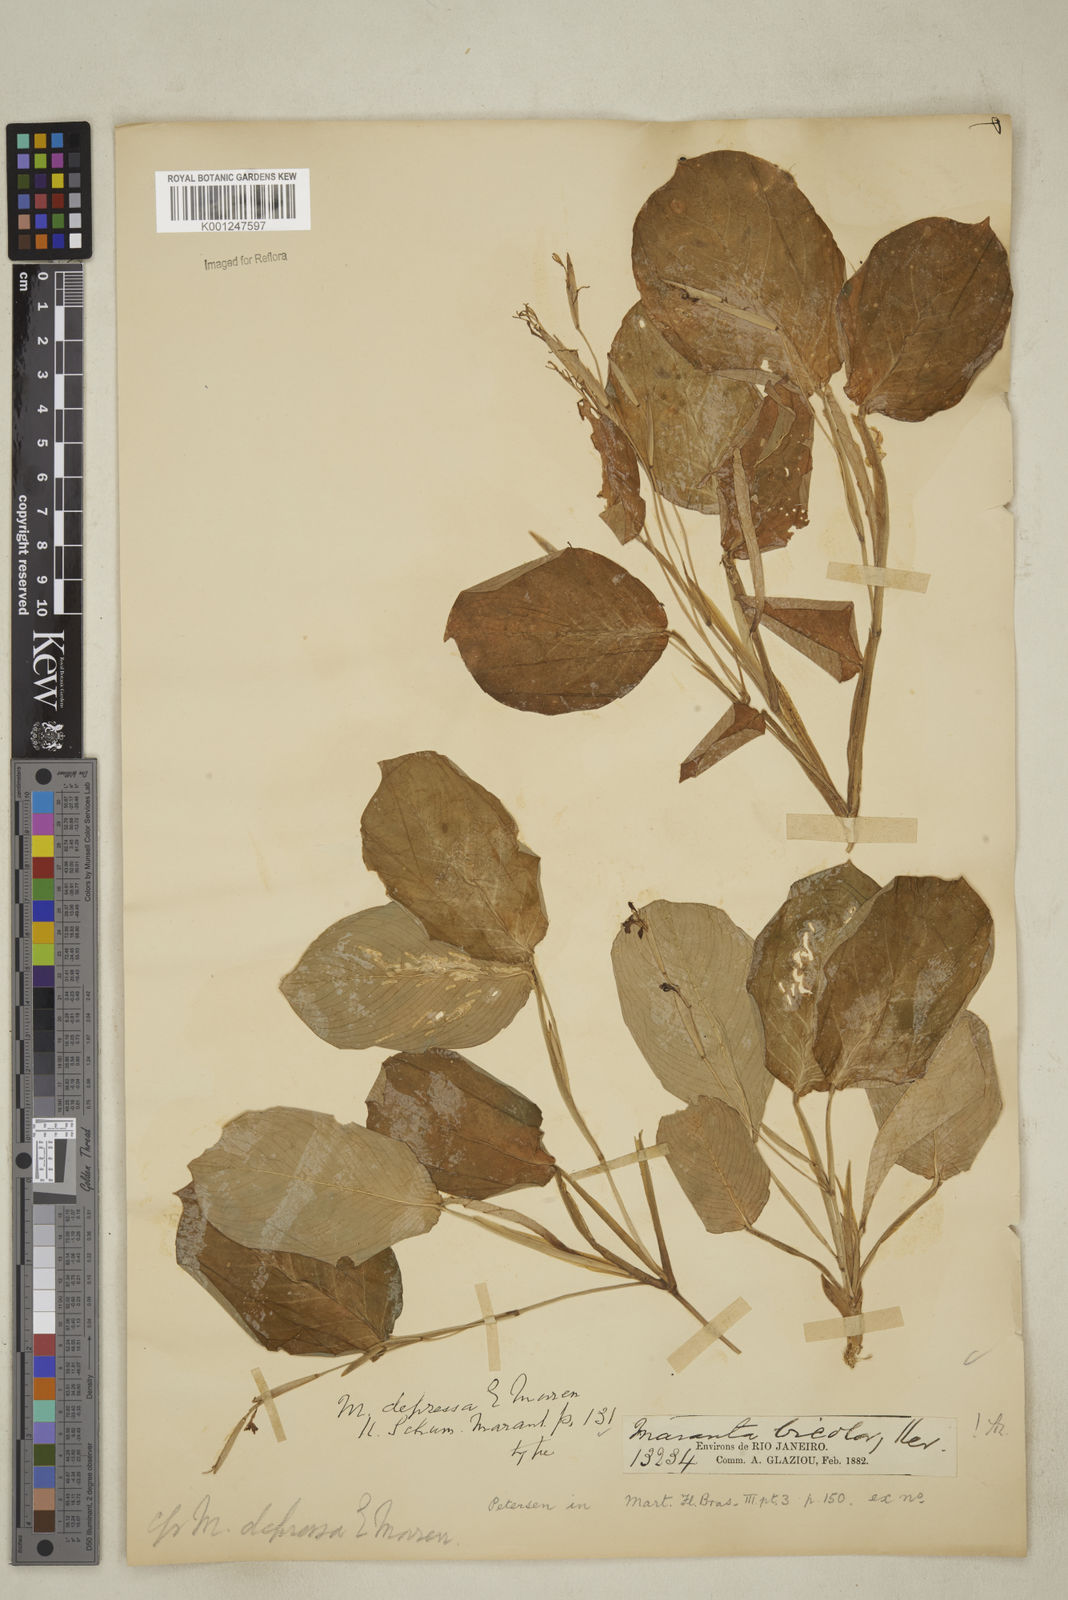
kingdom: Plantae
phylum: Tracheophyta
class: Liliopsida
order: Zingiberales
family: Marantaceae
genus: Maranta
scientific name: Maranta leuconeura
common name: Ten-commandments
